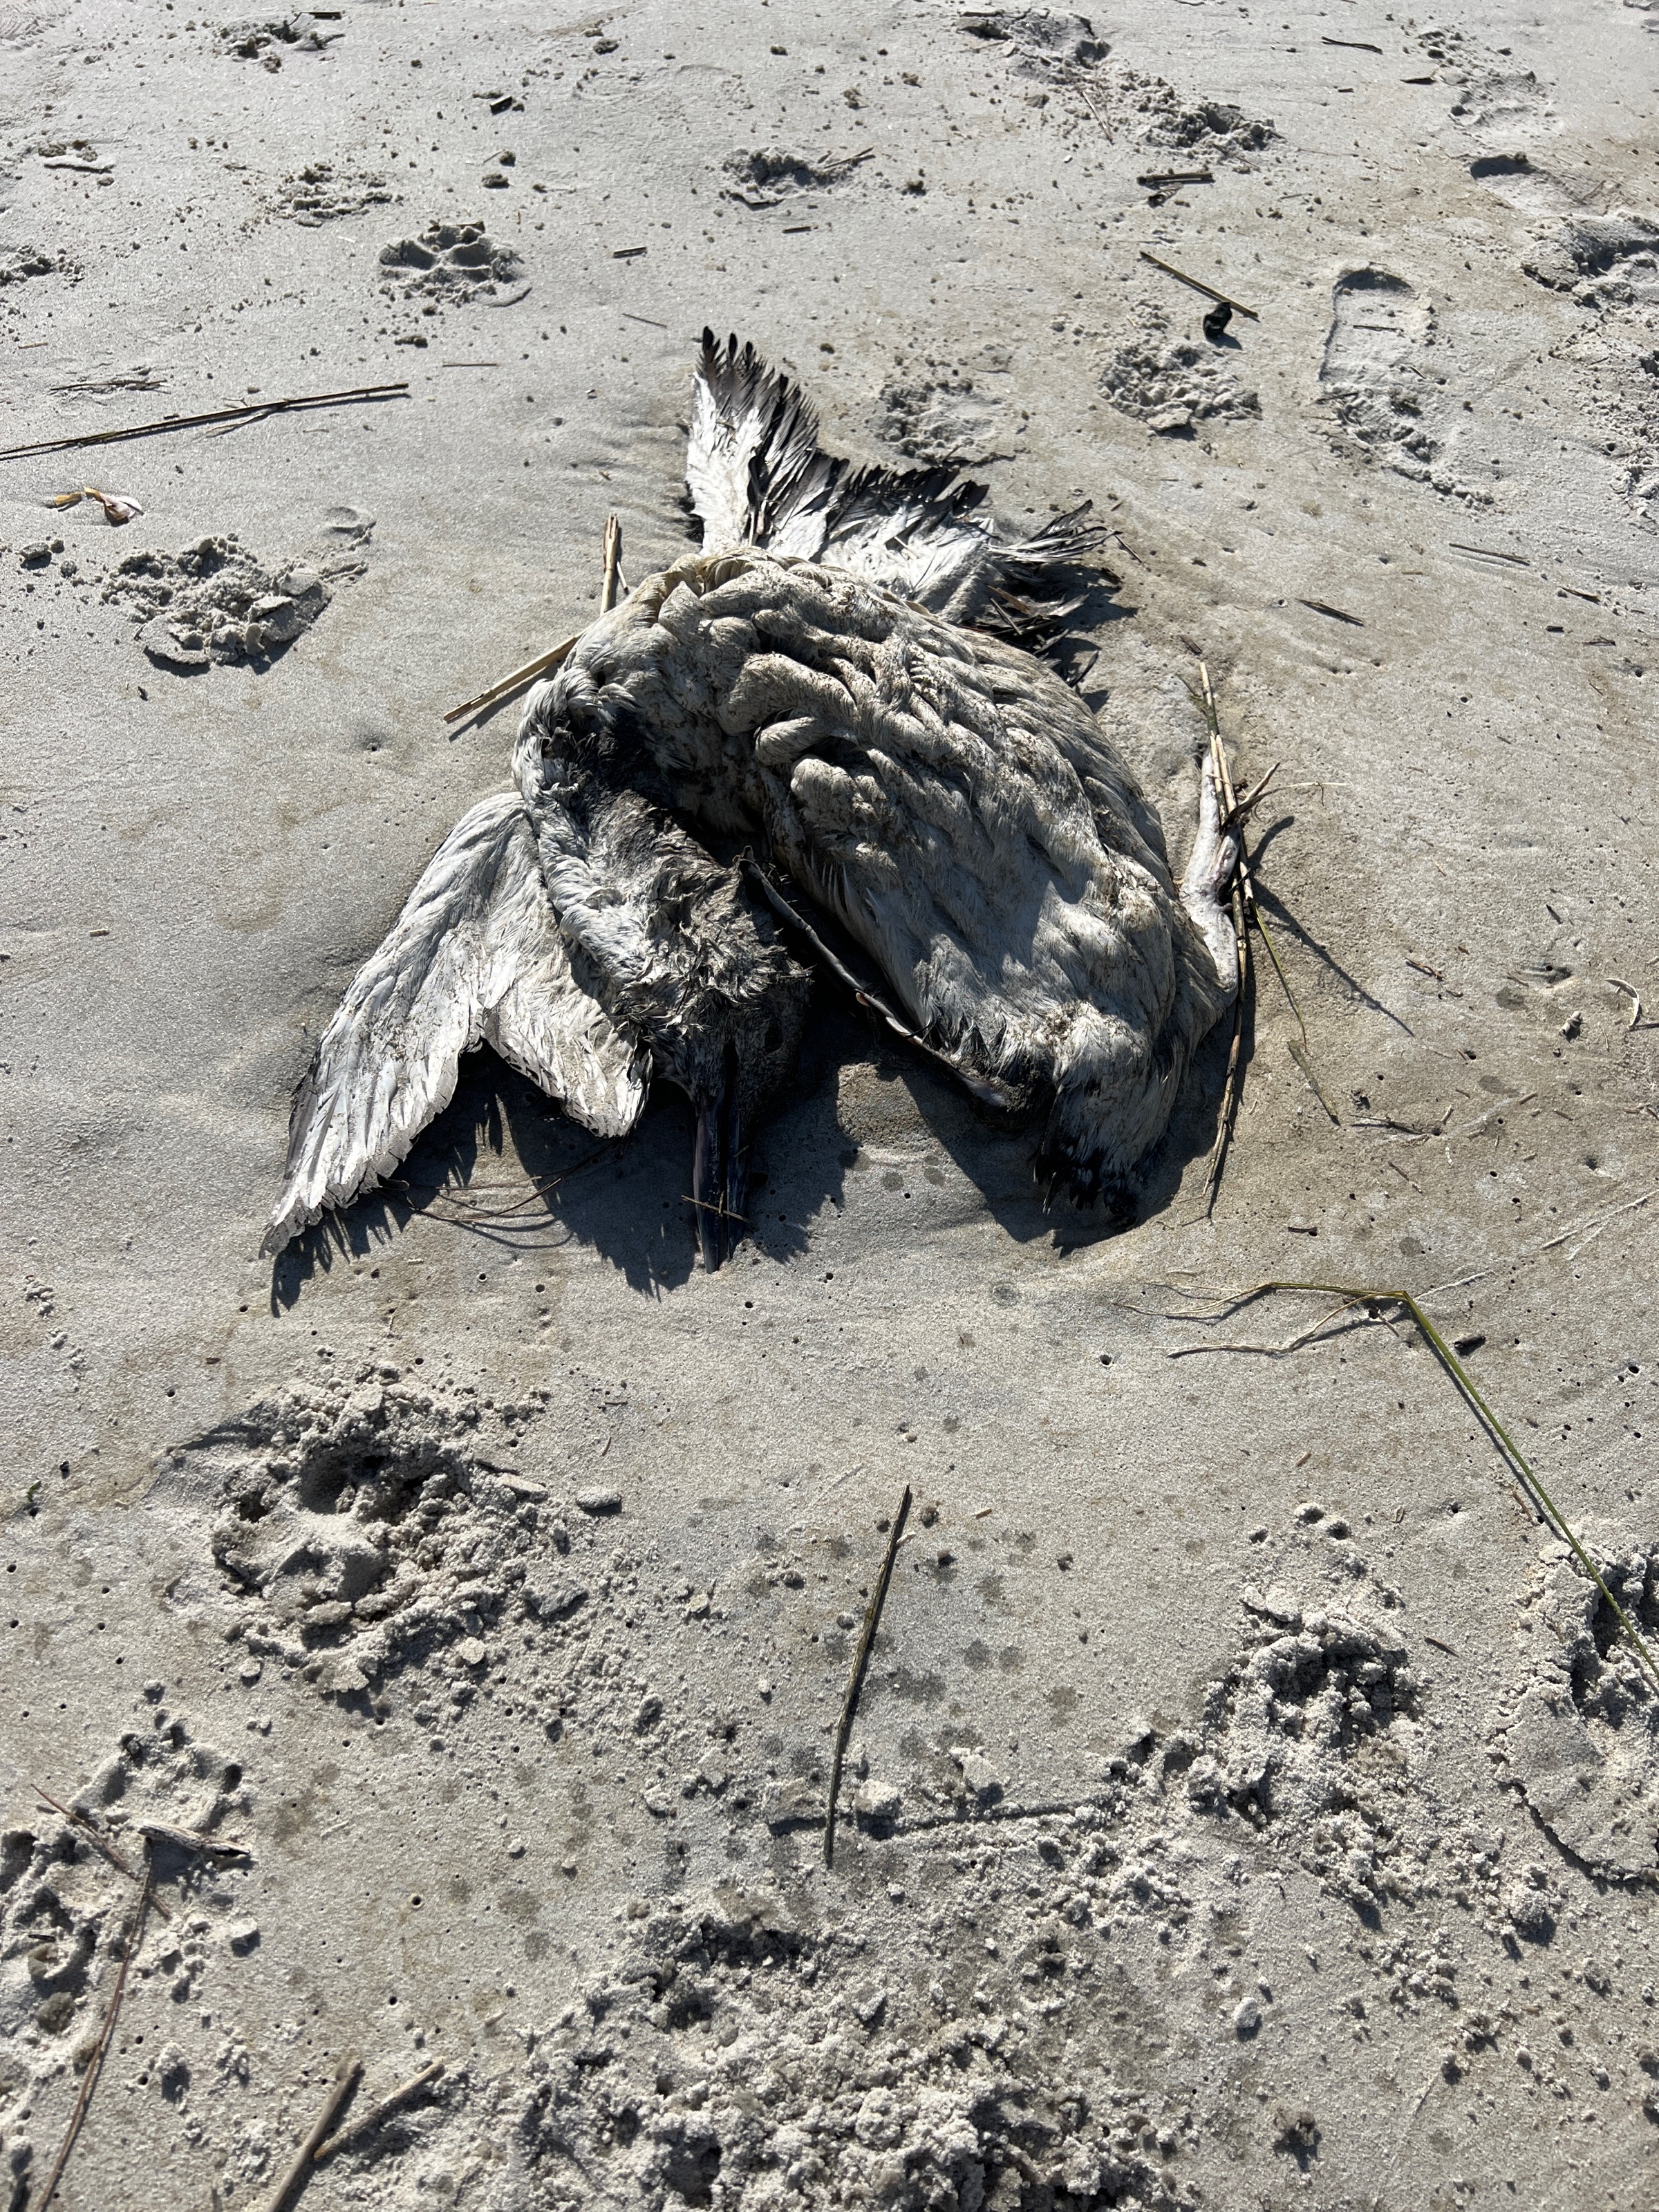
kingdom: Animalia
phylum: Chordata
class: Aves
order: Gaviiformes
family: Gaviidae
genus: Gavia
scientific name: Gavia stellata
